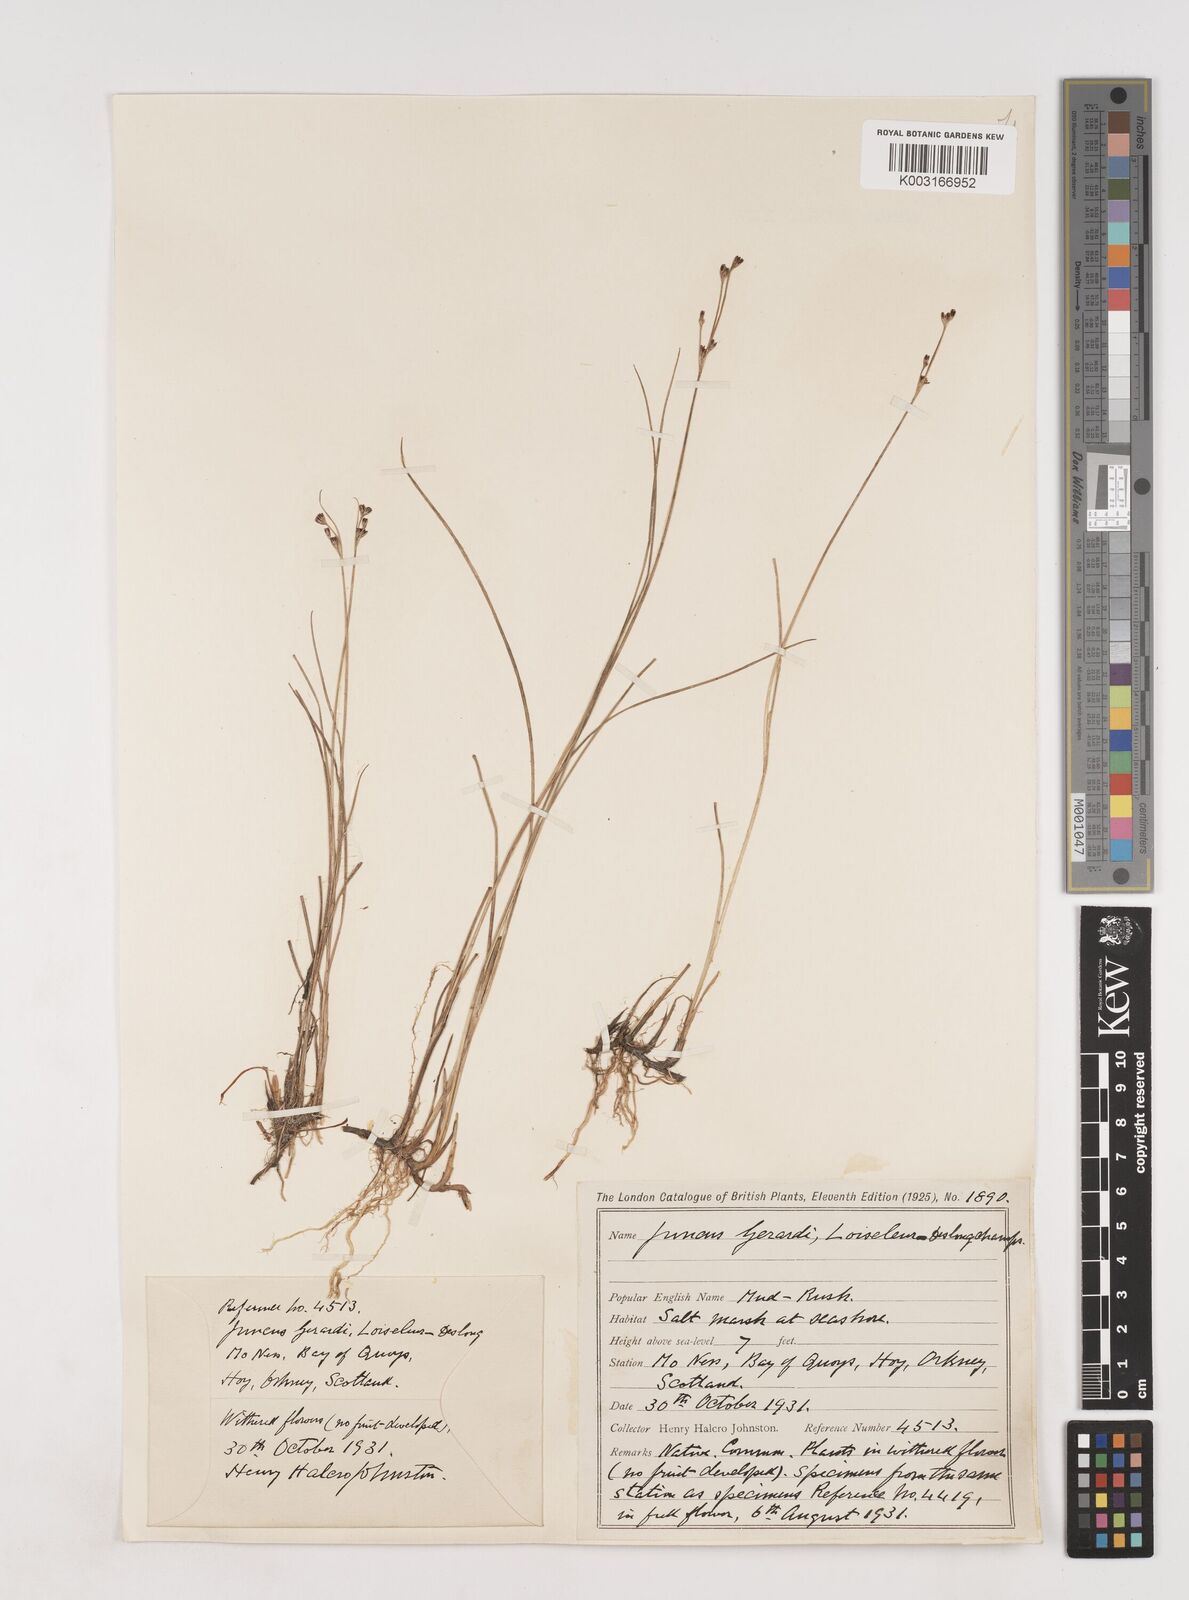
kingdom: Plantae
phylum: Tracheophyta
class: Liliopsida
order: Poales
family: Juncaceae
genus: Juncus
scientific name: Juncus gerardi
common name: Saltmarsh rush
